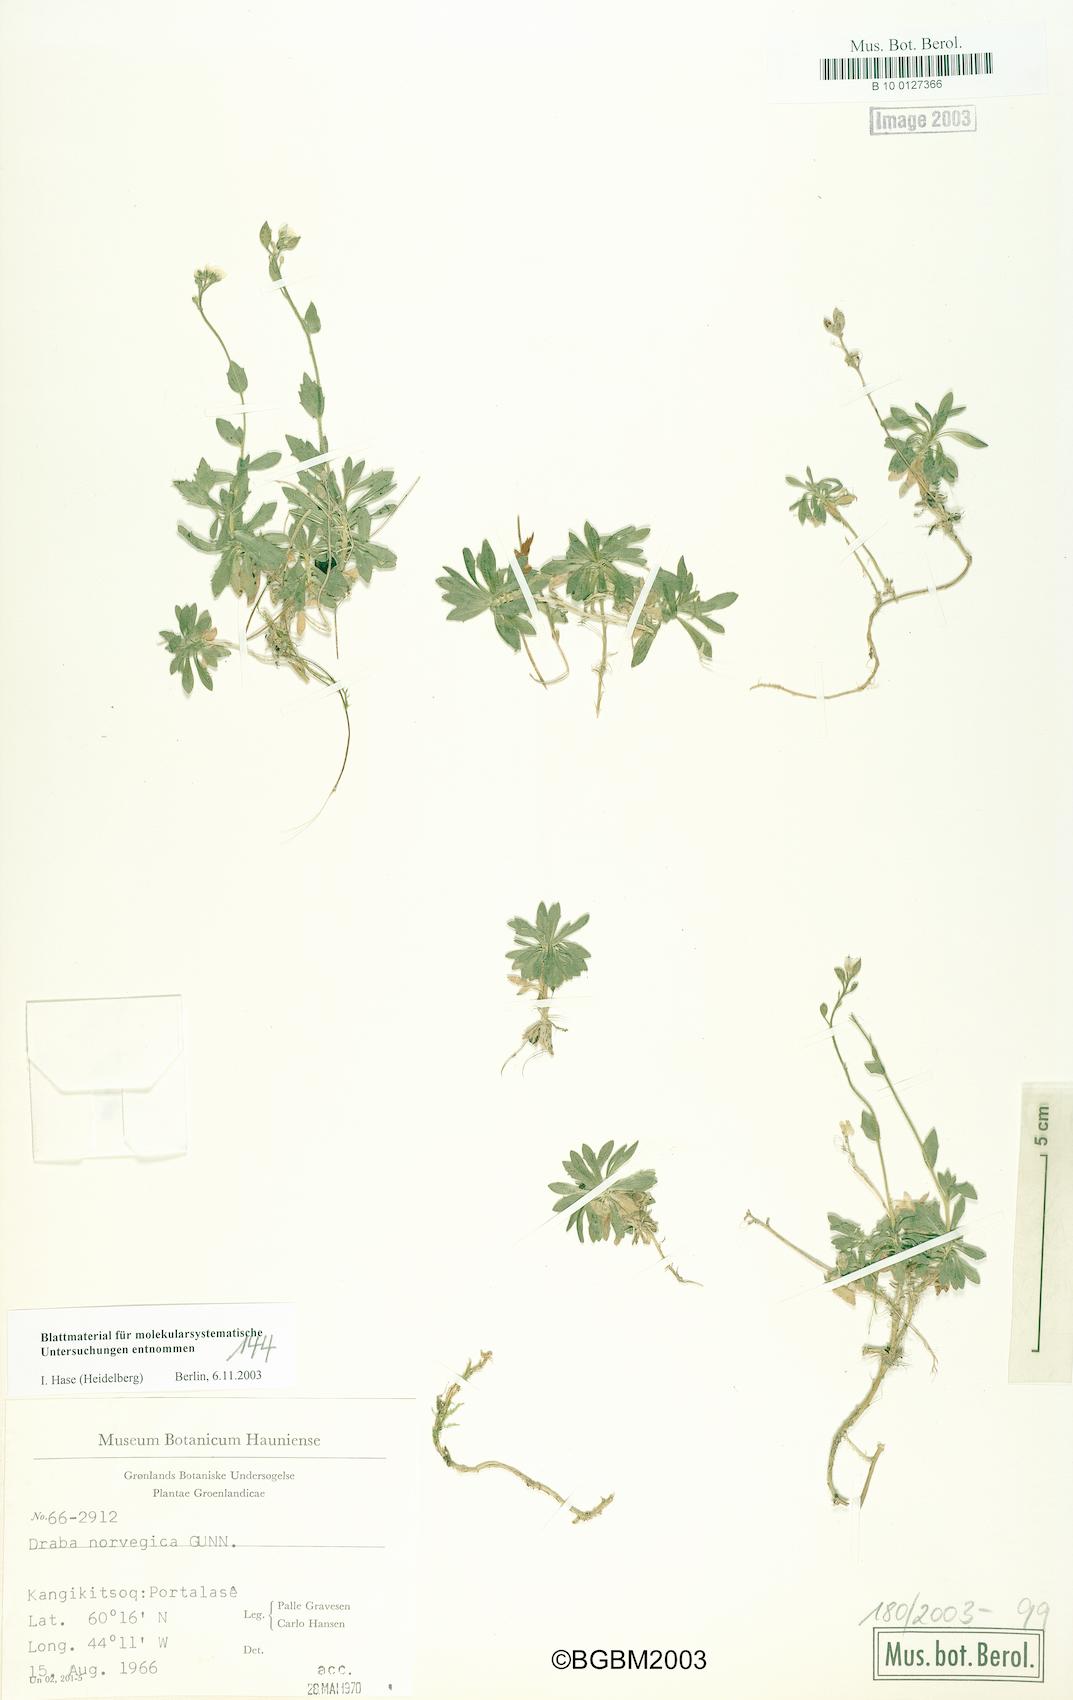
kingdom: Plantae
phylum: Tracheophyta
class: Magnoliopsida
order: Brassicales
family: Brassicaceae
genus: Draba
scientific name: Draba norvegica
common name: Rock whitlowgrass
